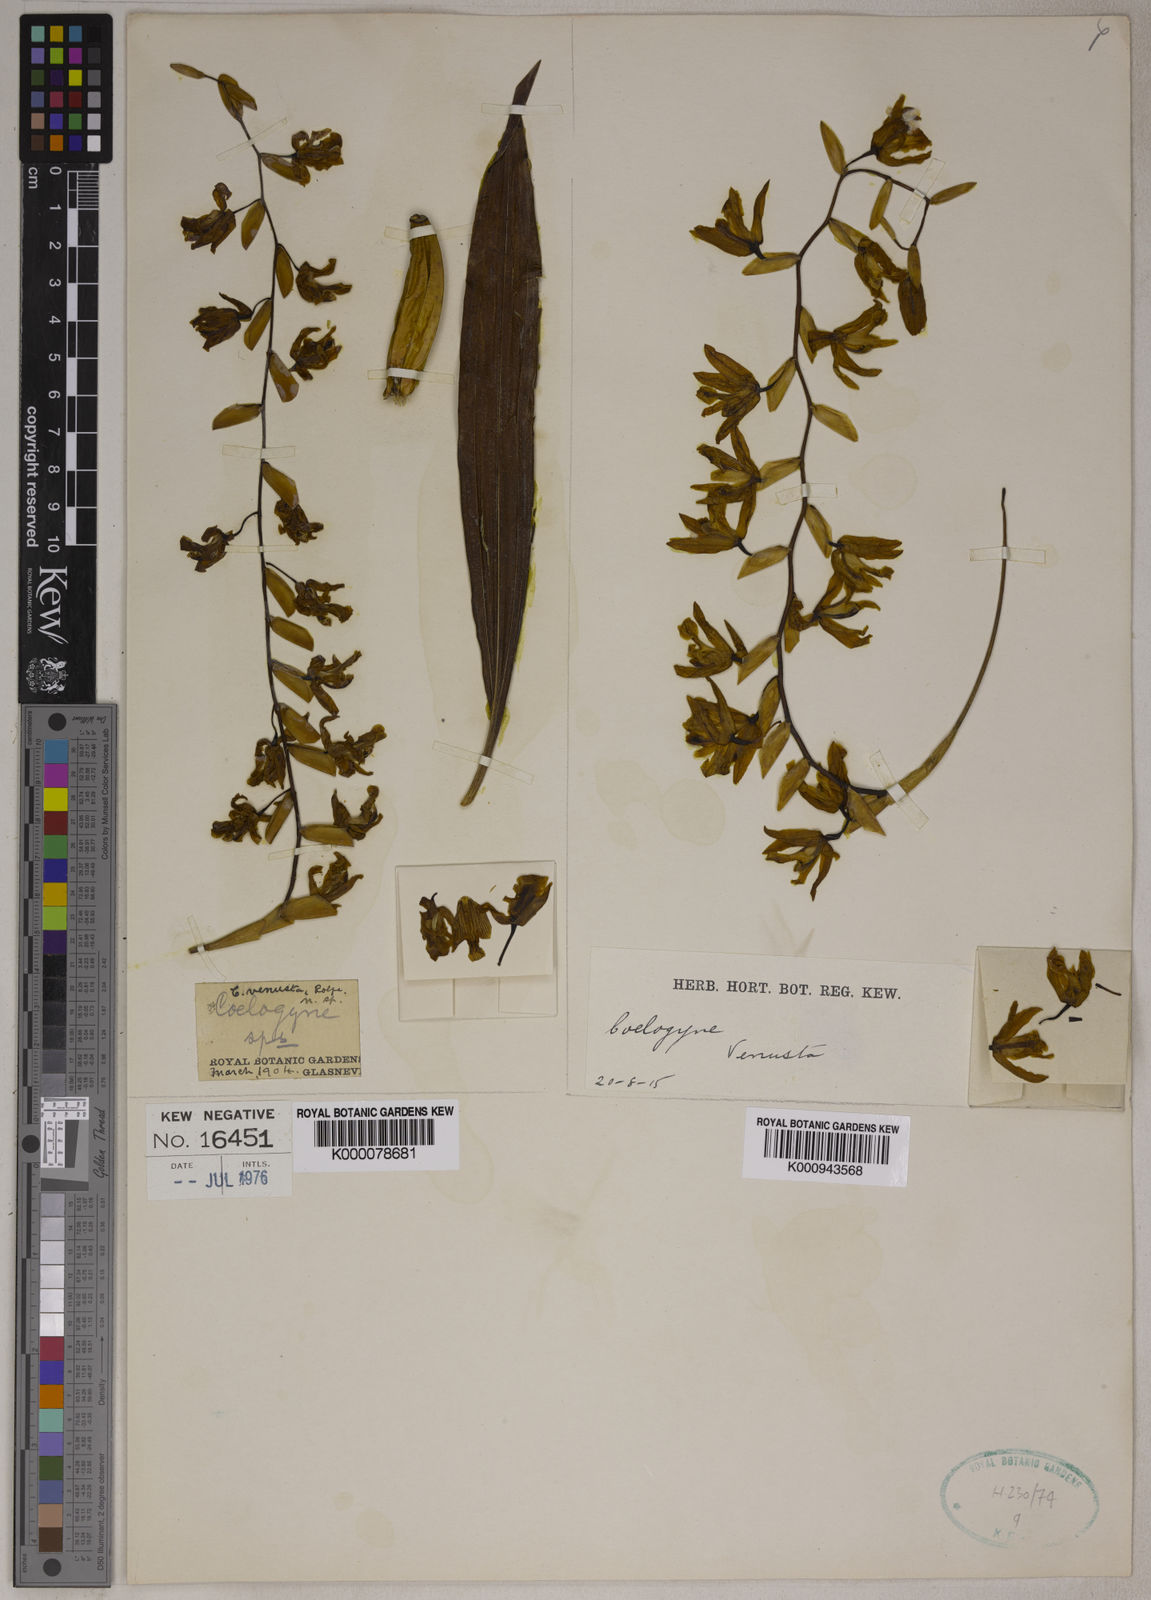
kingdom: Plantae
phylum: Tracheophyta
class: Liliopsida
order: Asparagales
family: Orchidaceae
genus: Coelogyne
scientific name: Coelogyne venusta
